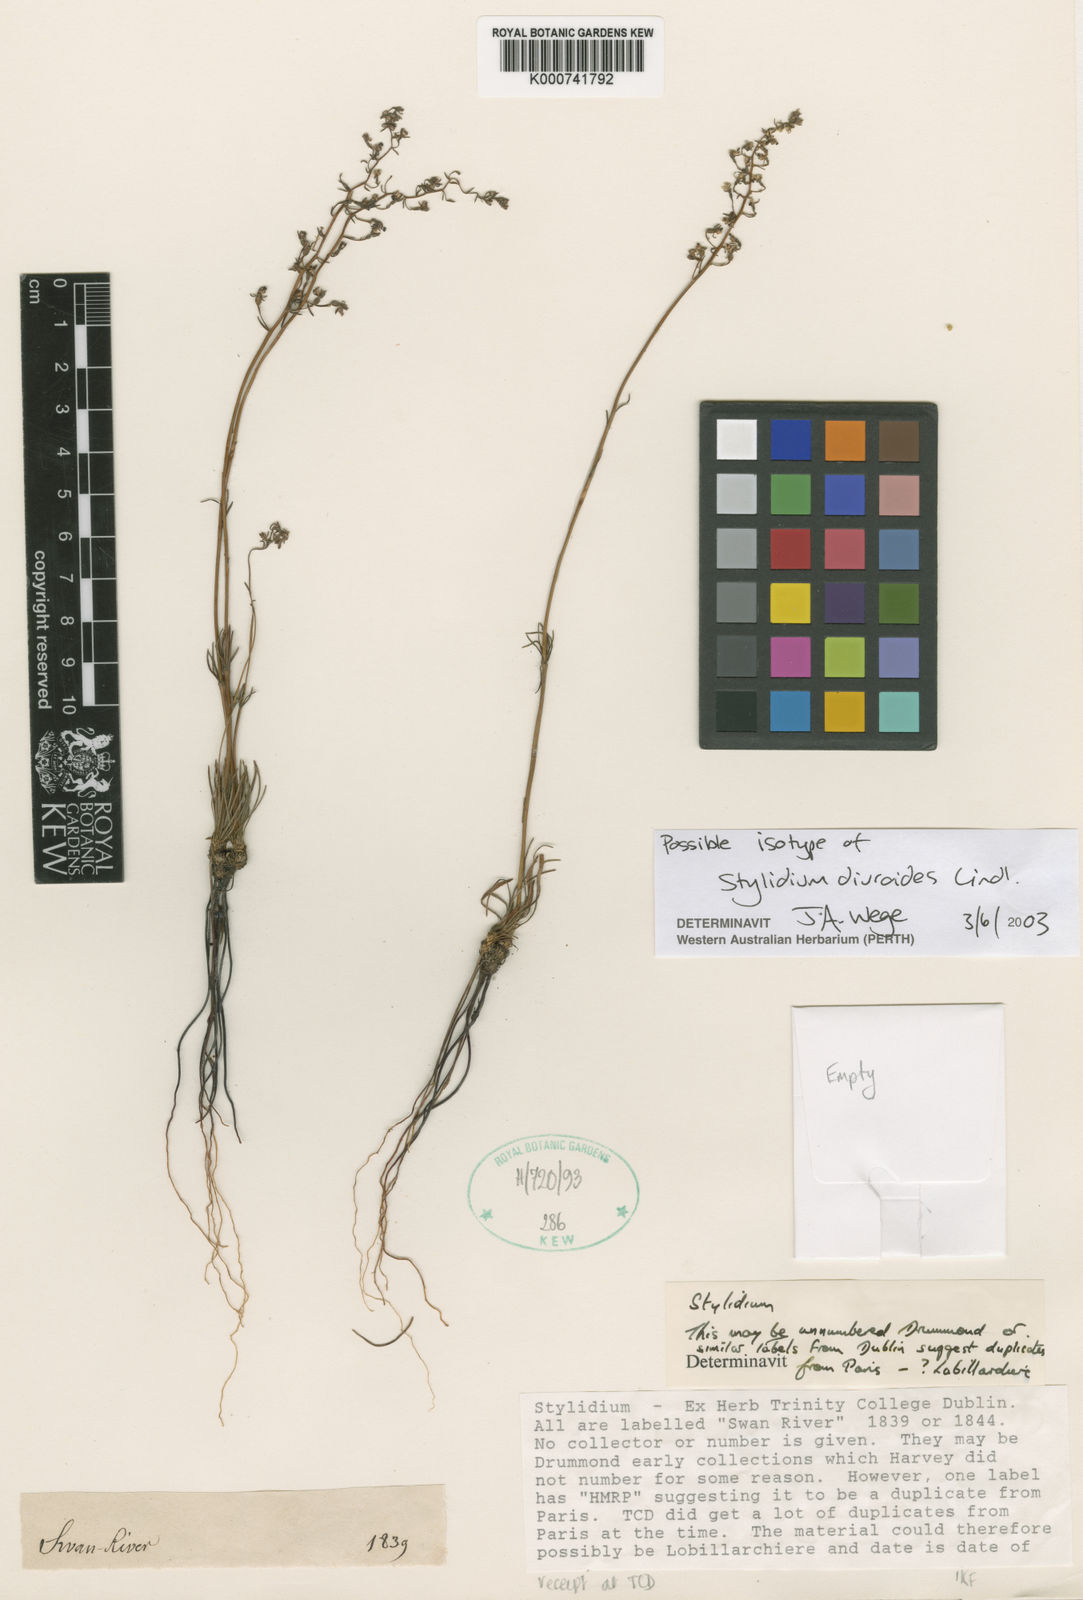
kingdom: Plantae
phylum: Tracheophyta
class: Magnoliopsida
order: Asterales
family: Stylidiaceae
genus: Stylidium
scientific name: Stylidium diuroides
